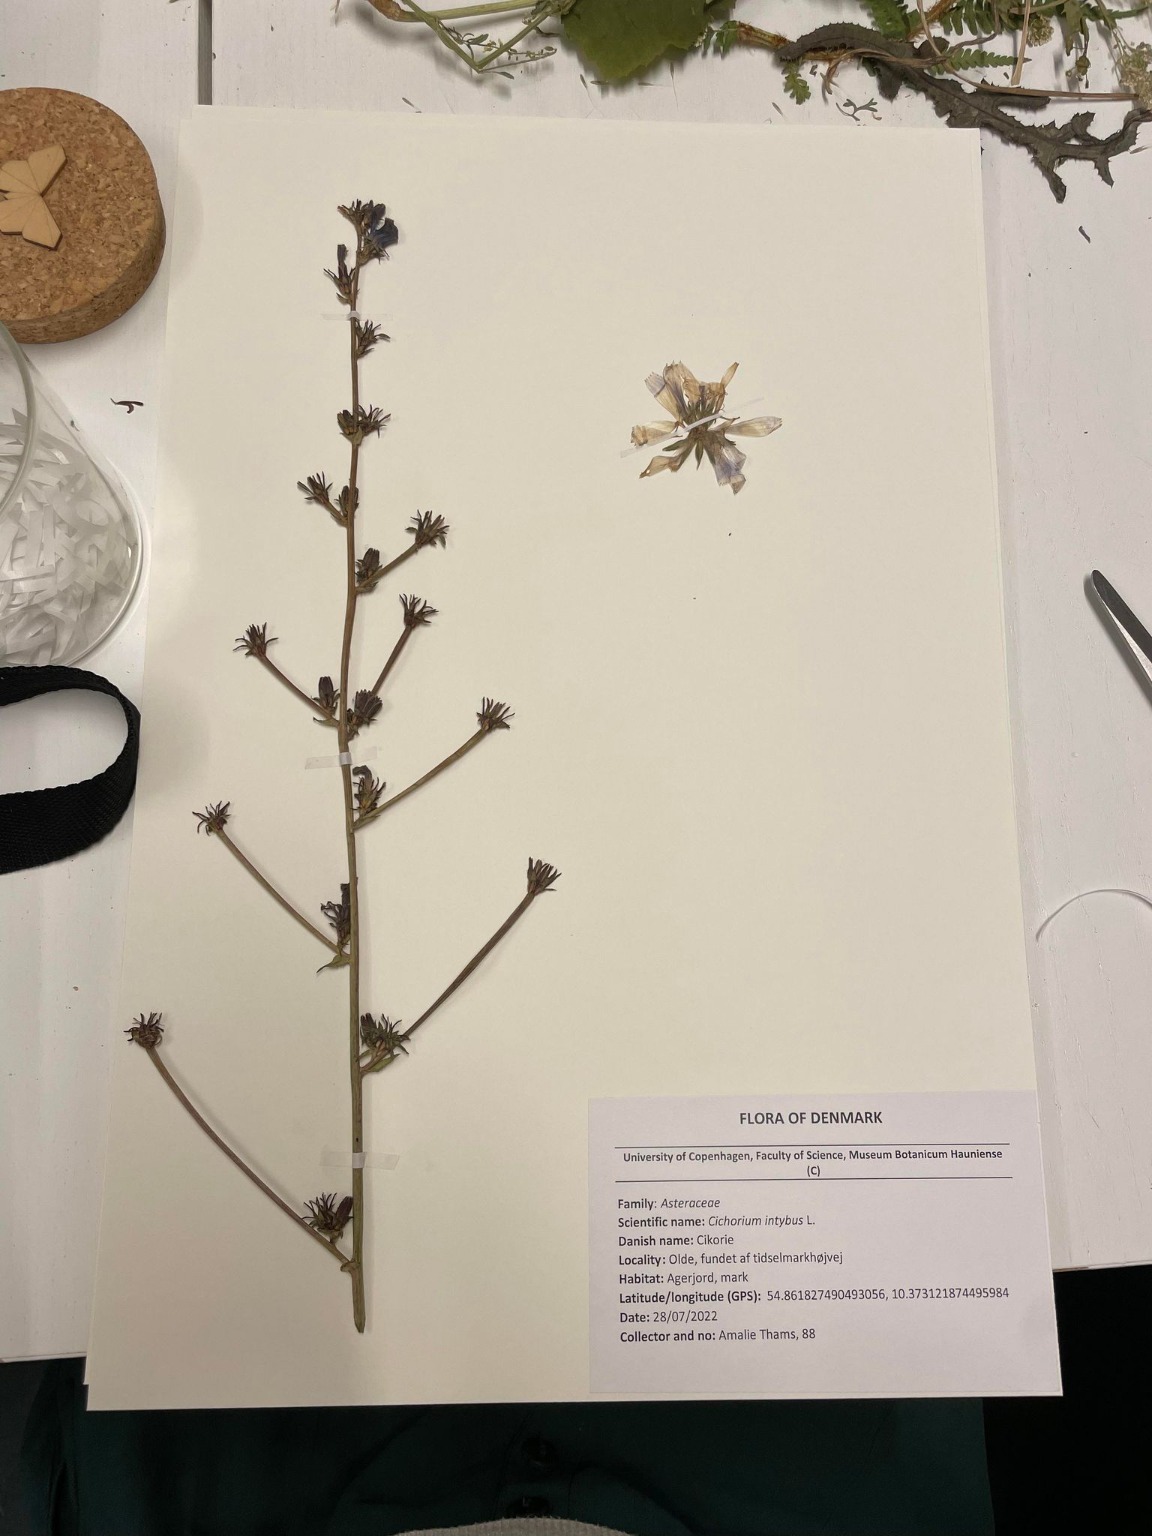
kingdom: Plantae
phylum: Tracheophyta
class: Magnoliopsida
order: Asterales
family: Asteraceae
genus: Cichorium
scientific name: Cichorium intybus
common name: Cikorie
